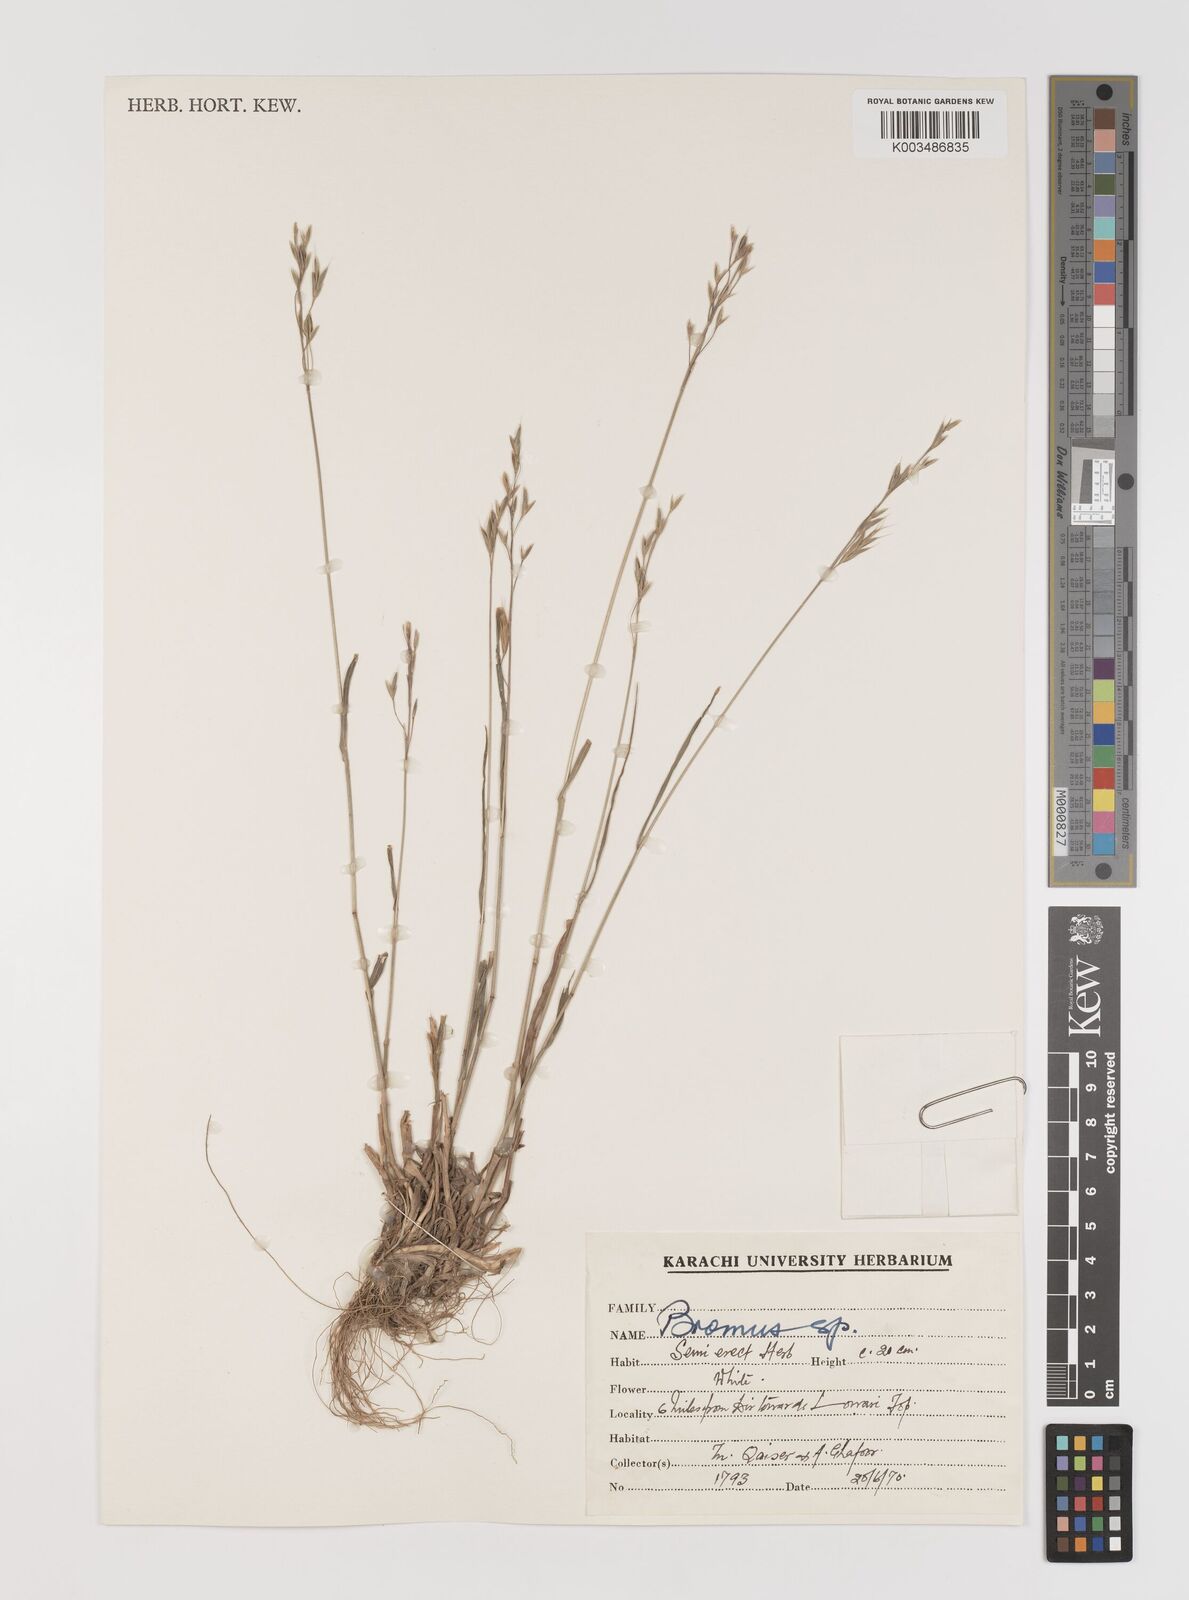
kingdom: Plantae
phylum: Tracheophyta
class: Liliopsida
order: Poales
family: Poaceae
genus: Bromus
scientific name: Bromus
